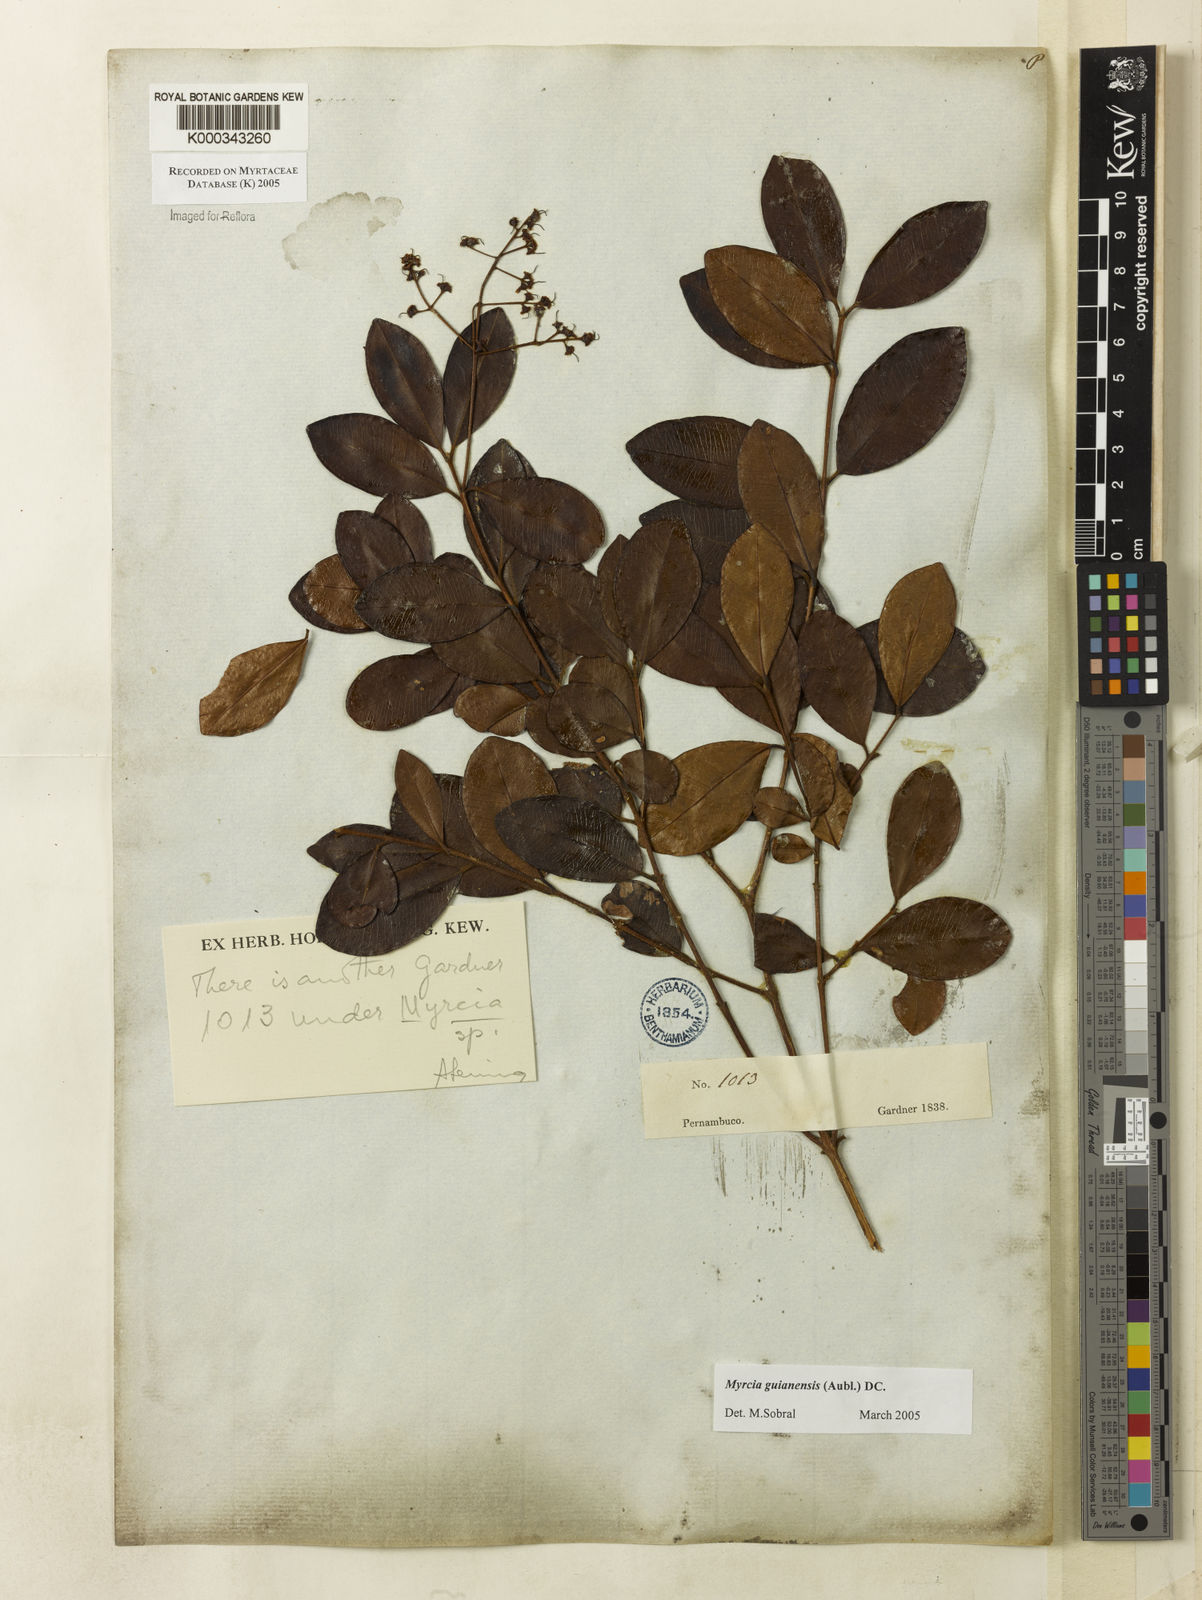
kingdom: Plantae
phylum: Tracheophyta
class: Magnoliopsida
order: Myrtales
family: Myrtaceae
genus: Myrcia
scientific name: Myrcia guianensis
